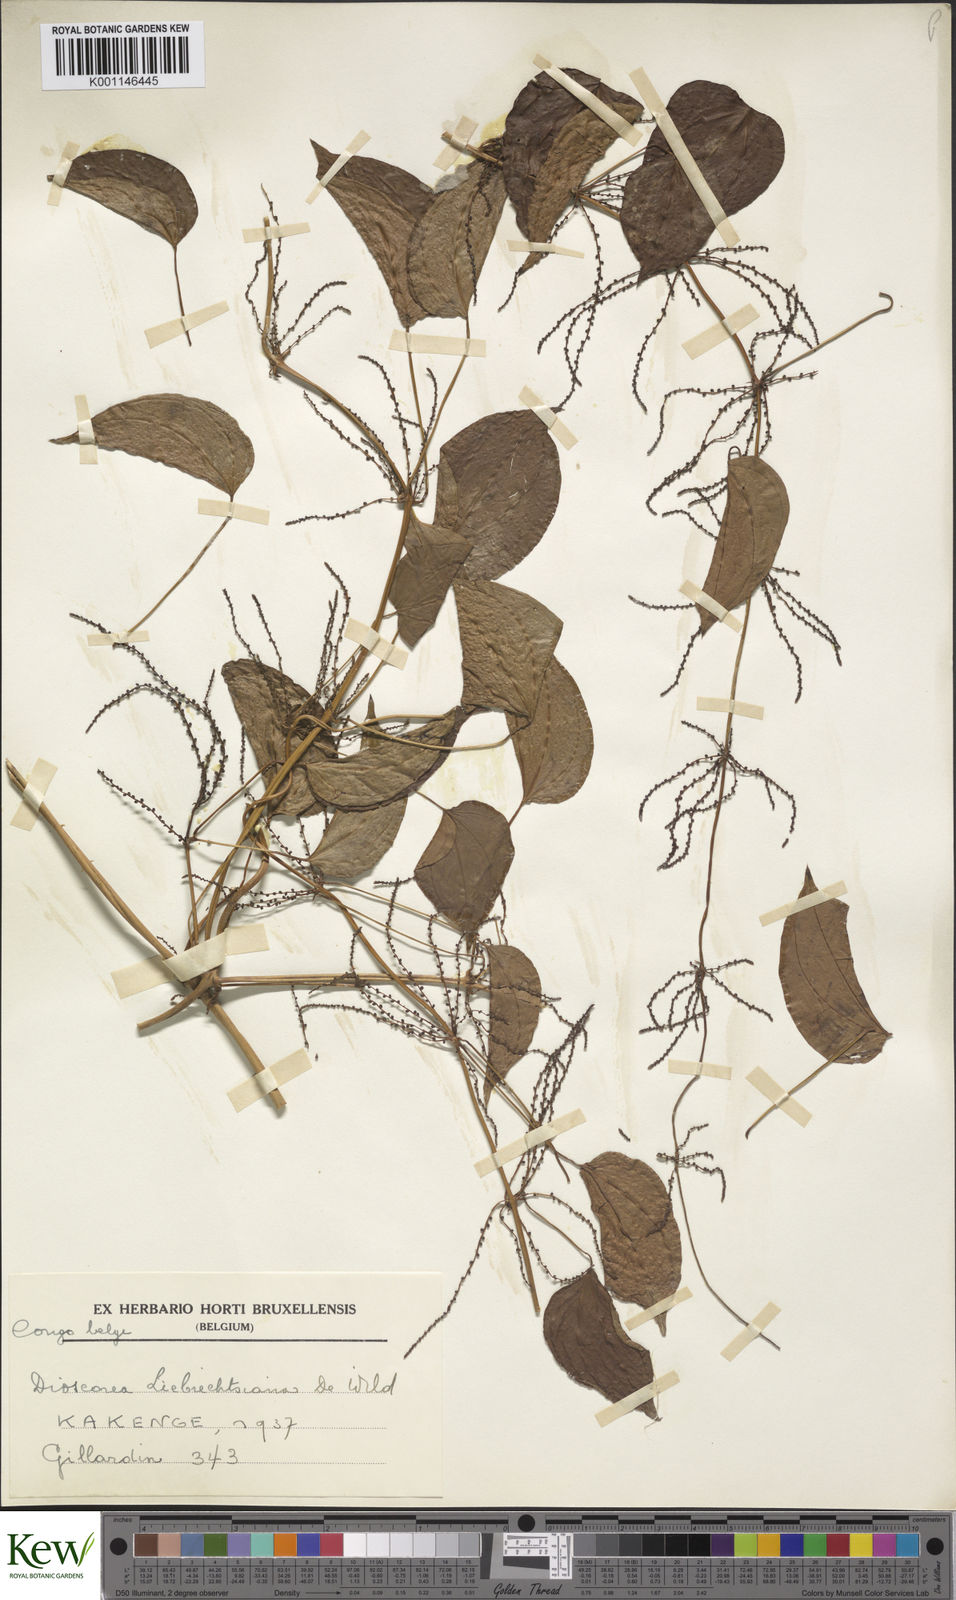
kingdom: Plantae
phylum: Tracheophyta
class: Liliopsida
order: Dioscoreales
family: Dioscoreaceae
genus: Dioscorea
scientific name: Dioscorea praehensilis
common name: Bush yam
